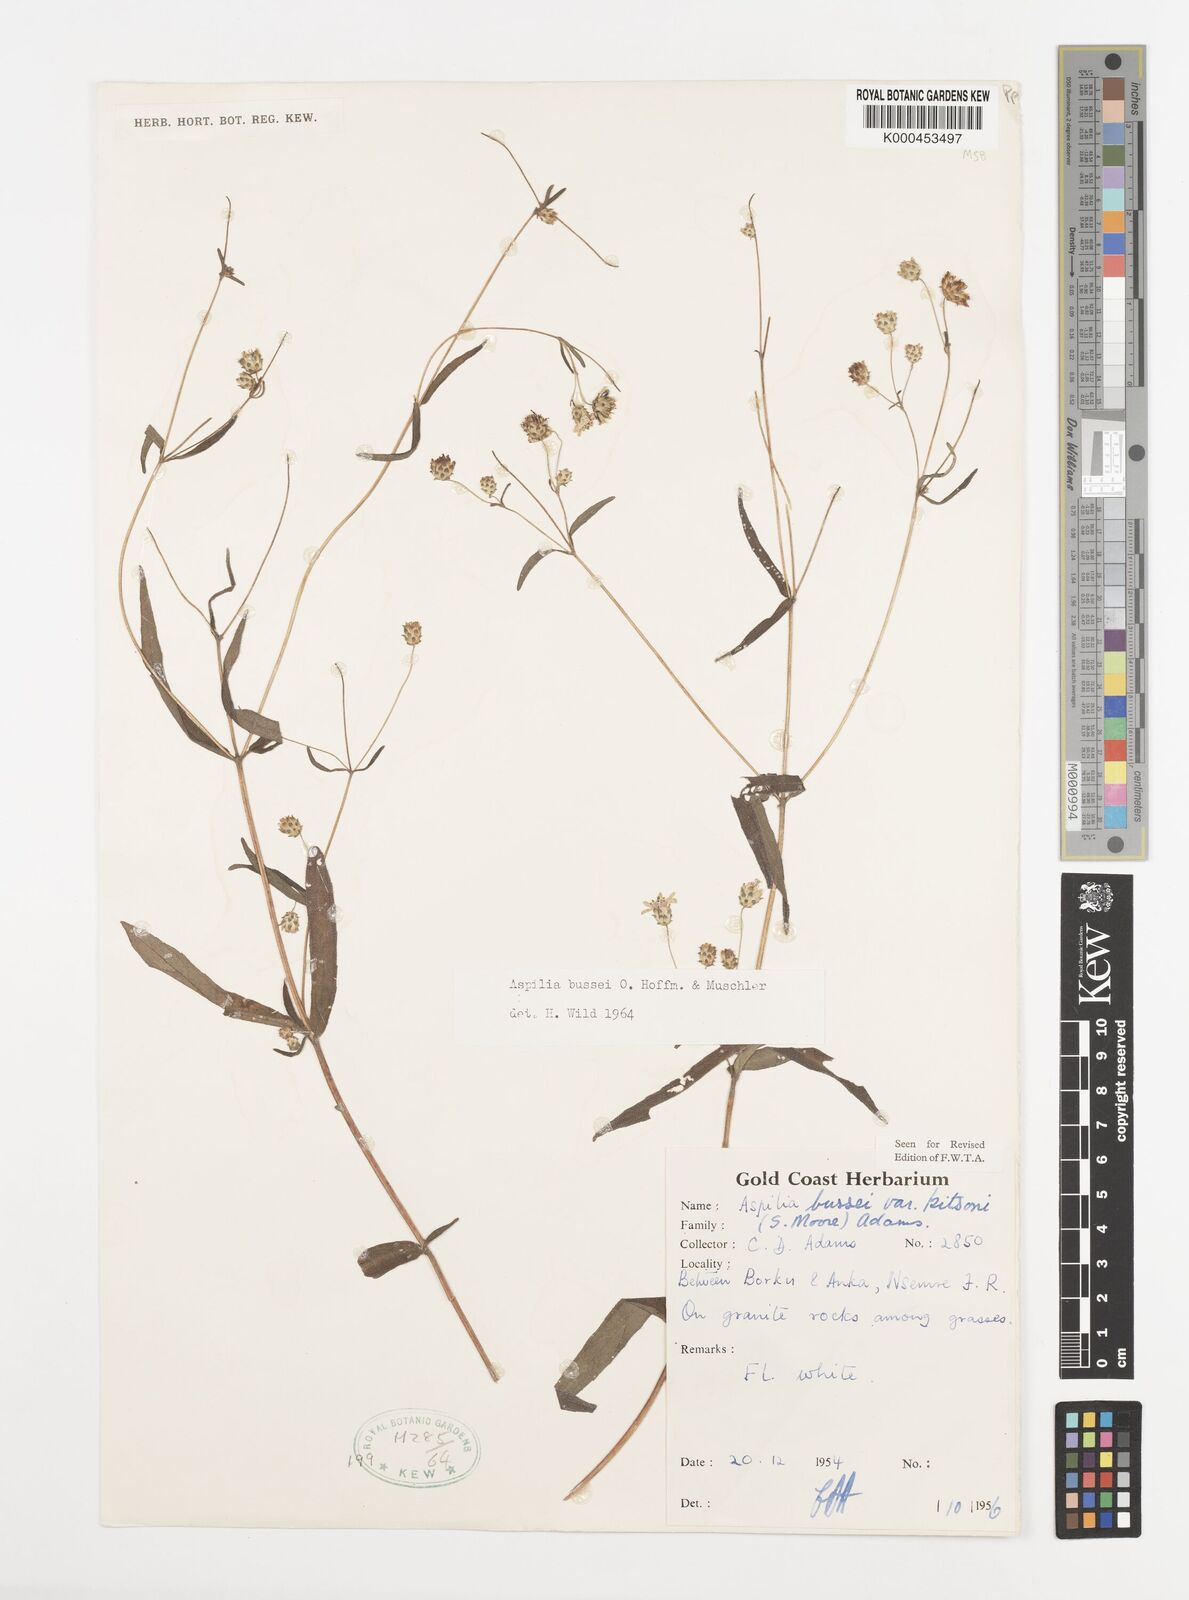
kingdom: Plantae
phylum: Tracheophyta
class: Magnoliopsida
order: Asterales
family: Asteraceae
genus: Aspilia
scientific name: Aspilia bussei
